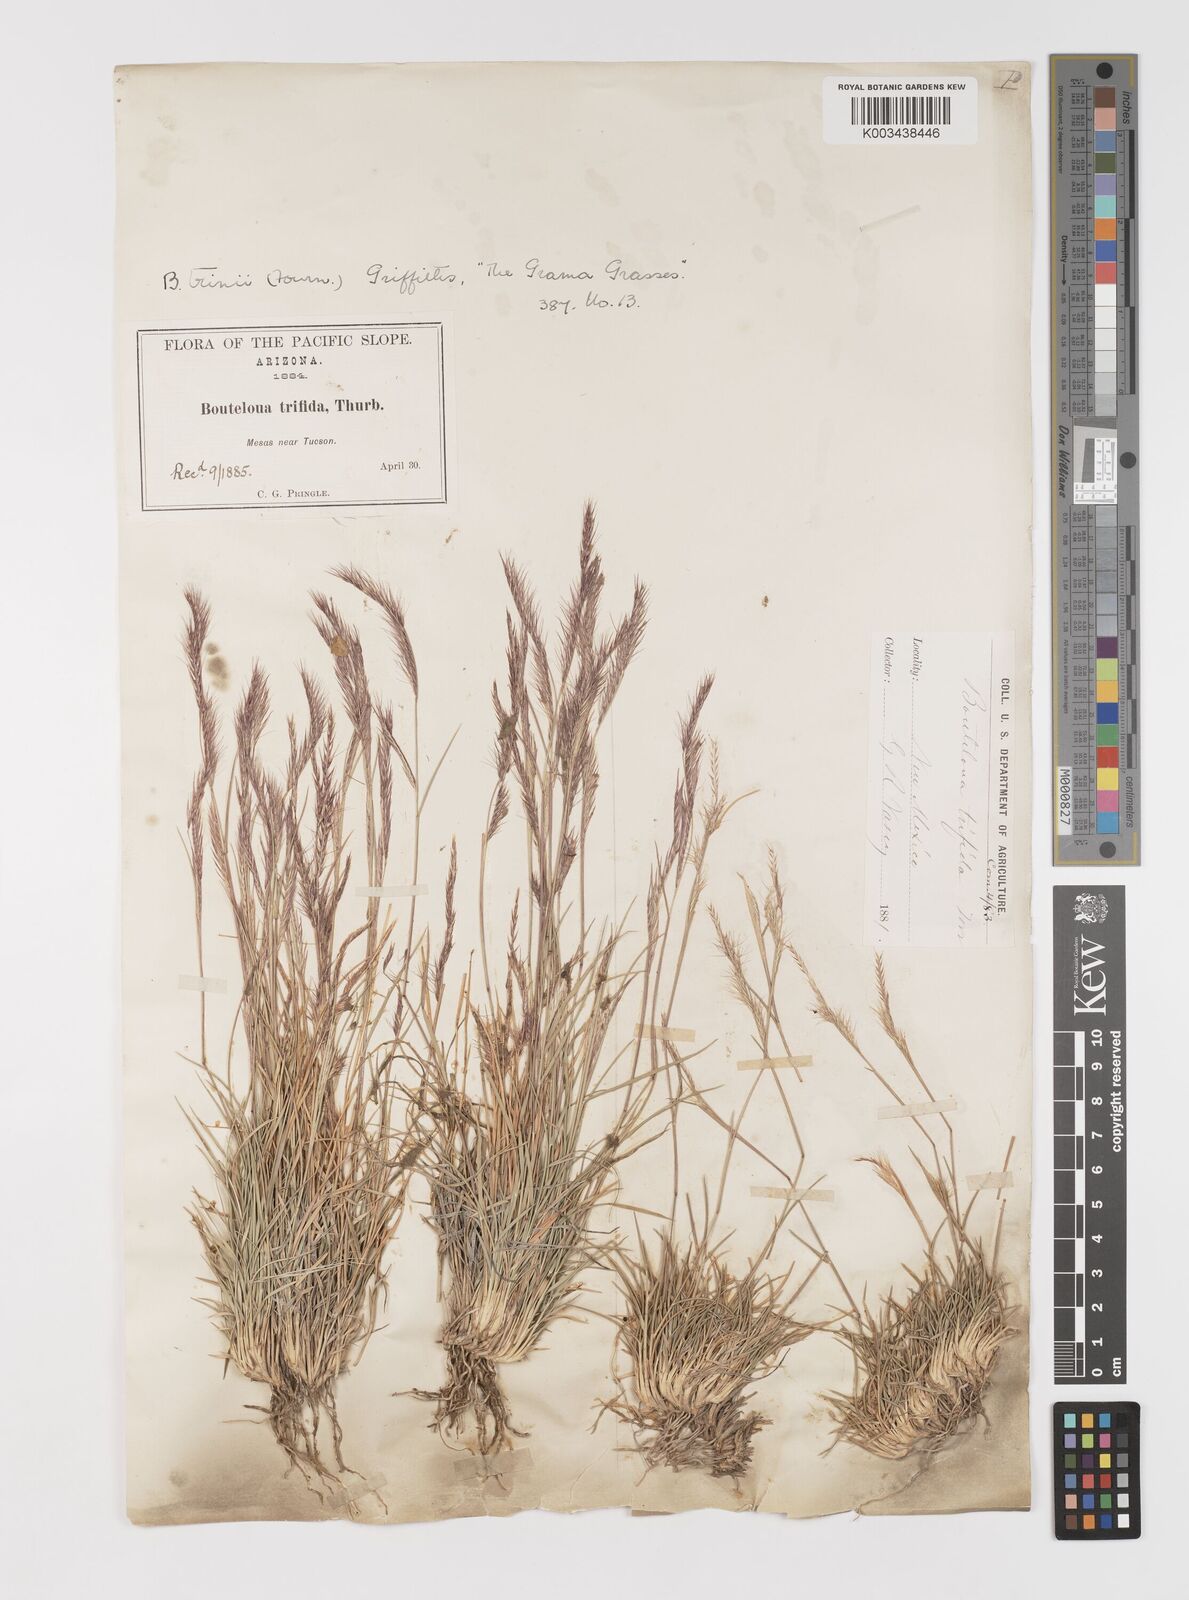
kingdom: Plantae
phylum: Tracheophyta
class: Liliopsida
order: Poales
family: Poaceae
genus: Bouteloua
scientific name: Bouteloua trifida
